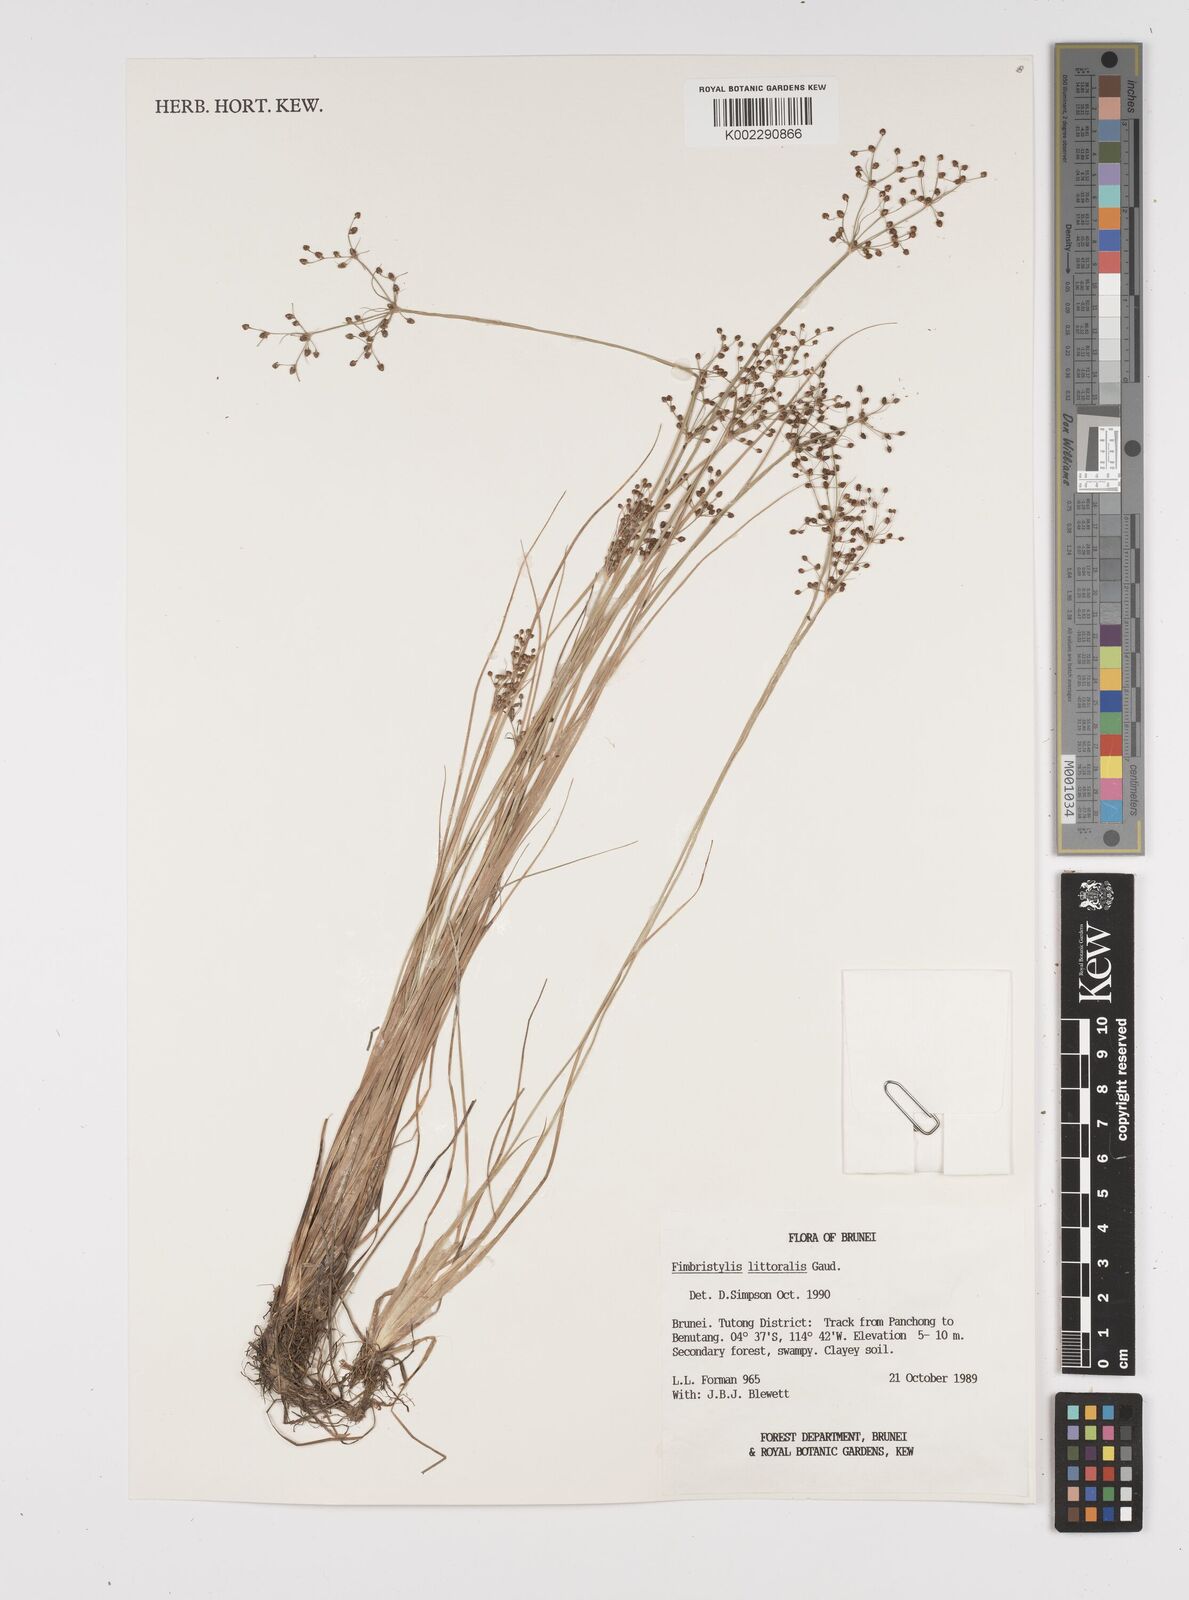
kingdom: Plantae
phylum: Tracheophyta
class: Liliopsida
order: Poales
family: Cyperaceae
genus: Fimbristylis
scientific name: Fimbristylis littoralis
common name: Fimbry
